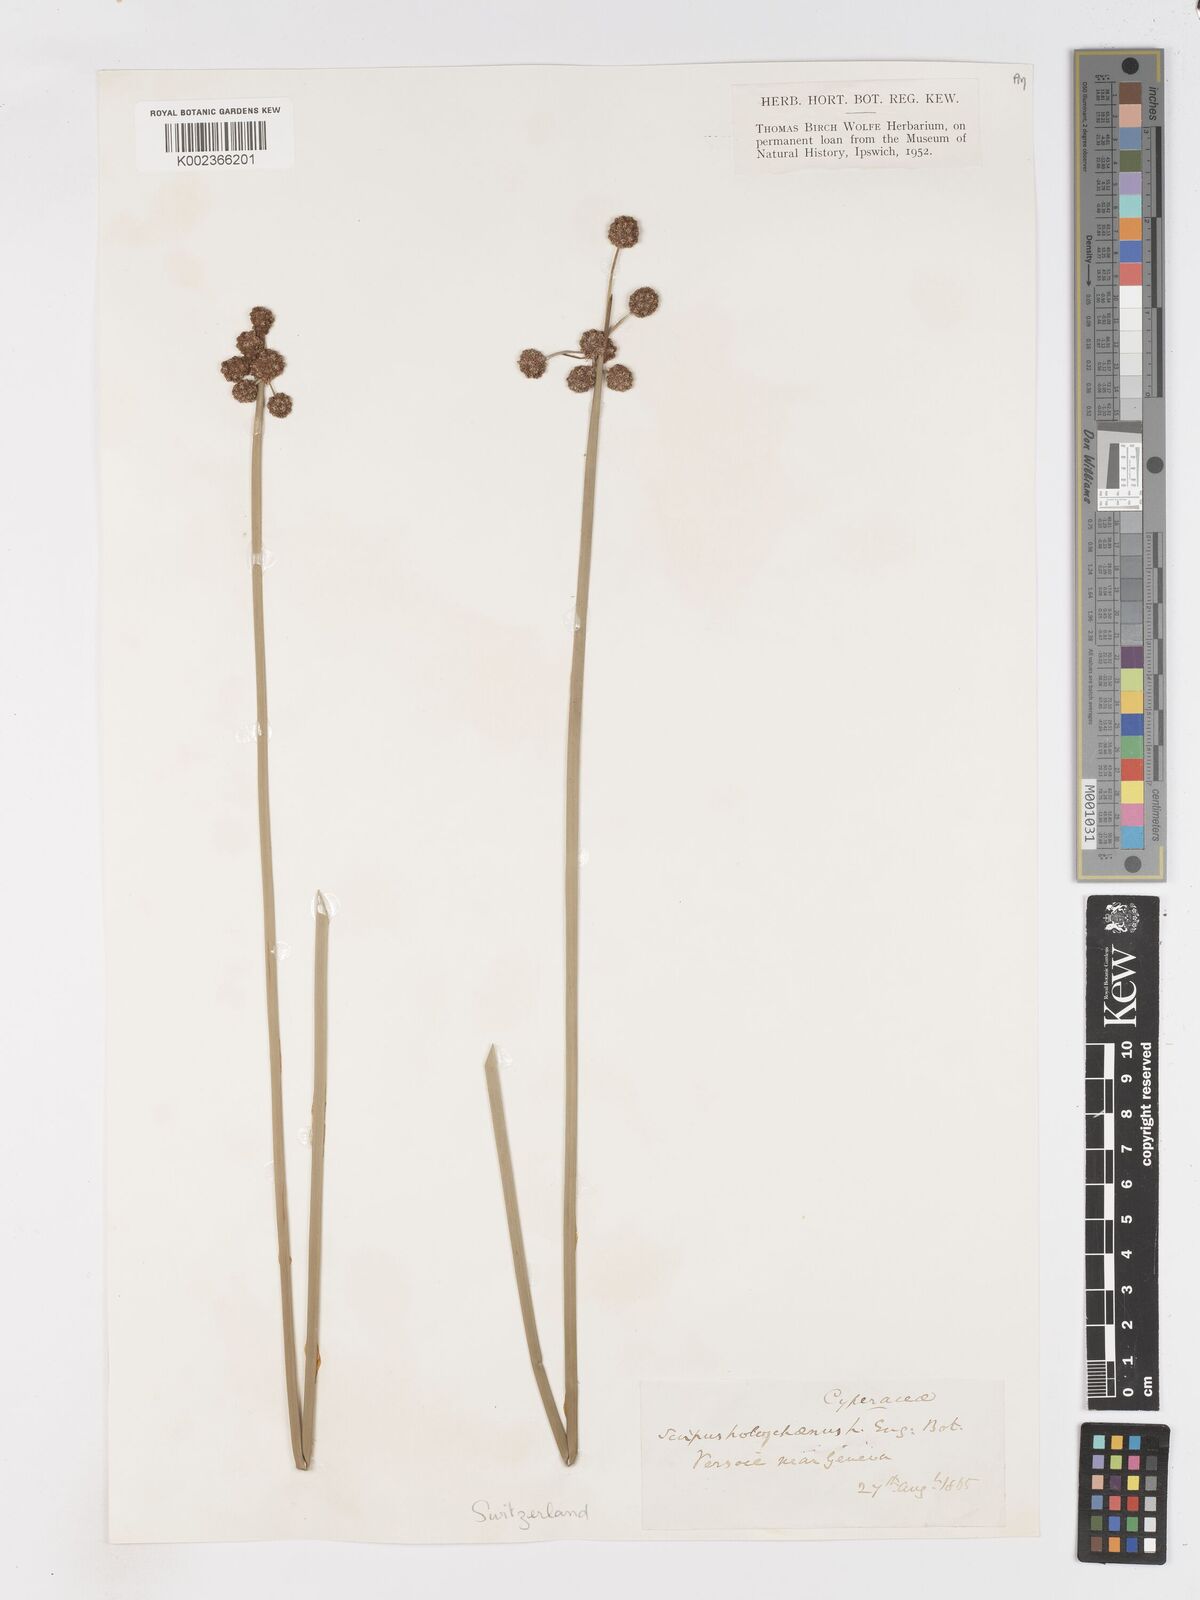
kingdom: Plantae
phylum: Tracheophyta
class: Liliopsida
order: Poales
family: Cyperaceae
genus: Scirpoides
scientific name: Scirpoides holoschoenus
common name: Round-headed club-rush
